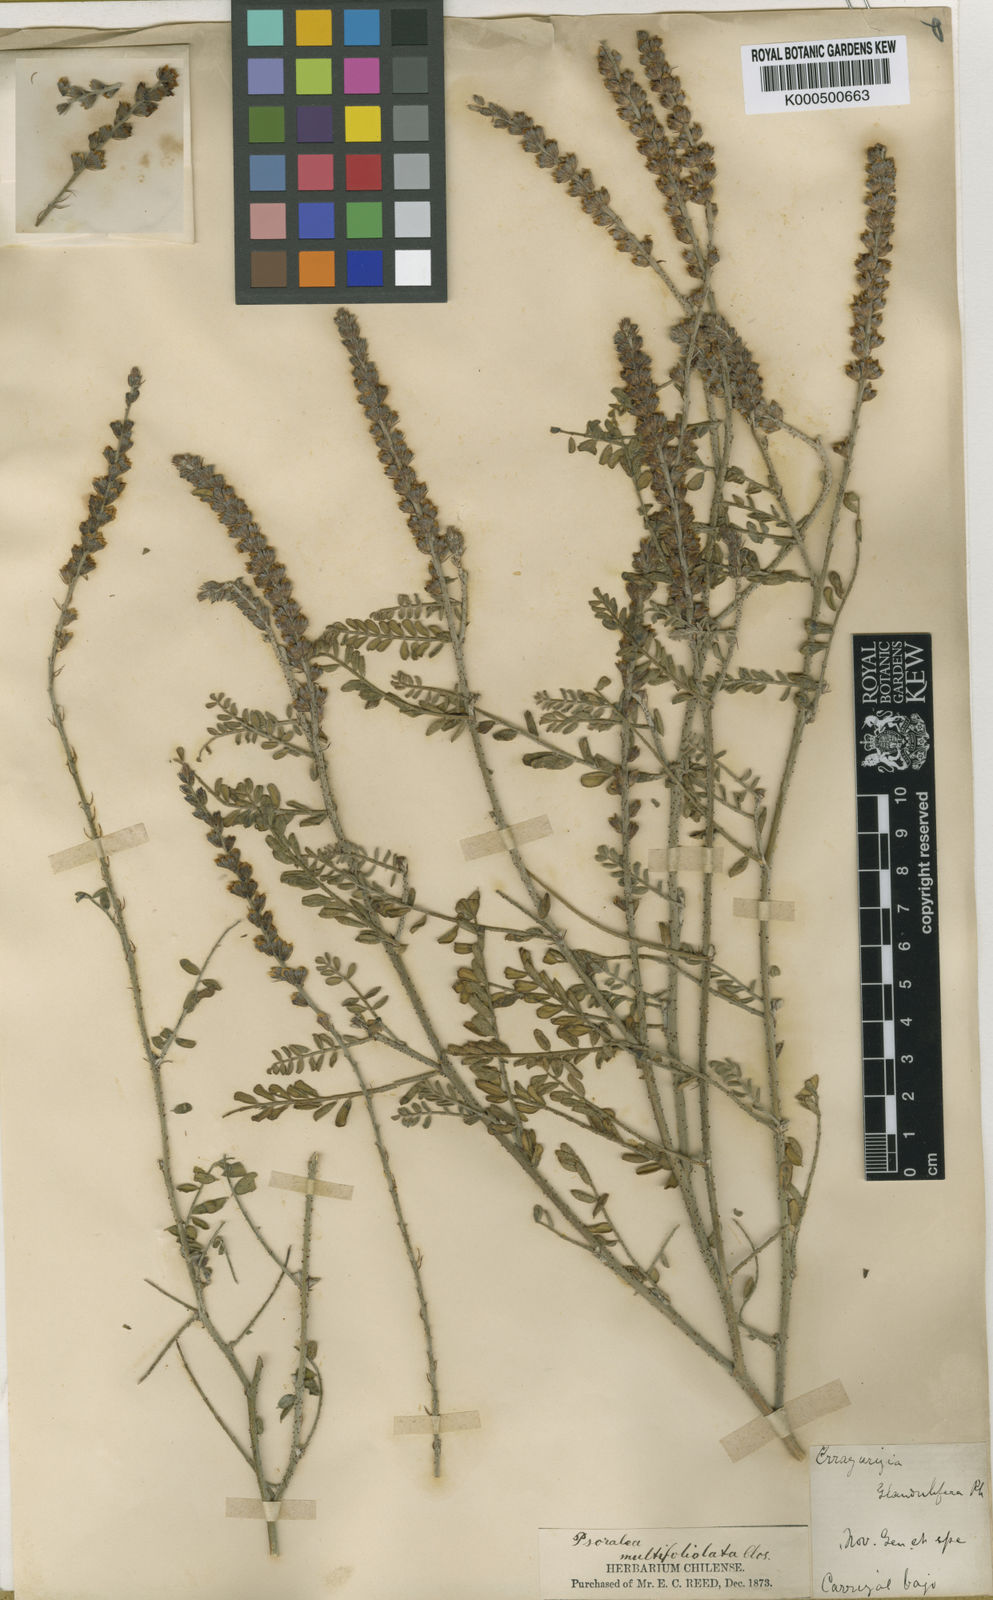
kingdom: Plantae
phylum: Tracheophyta
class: Magnoliopsida
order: Fabales
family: Fabaceae
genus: Errazurizia
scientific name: Errazurizia multifoliolata
